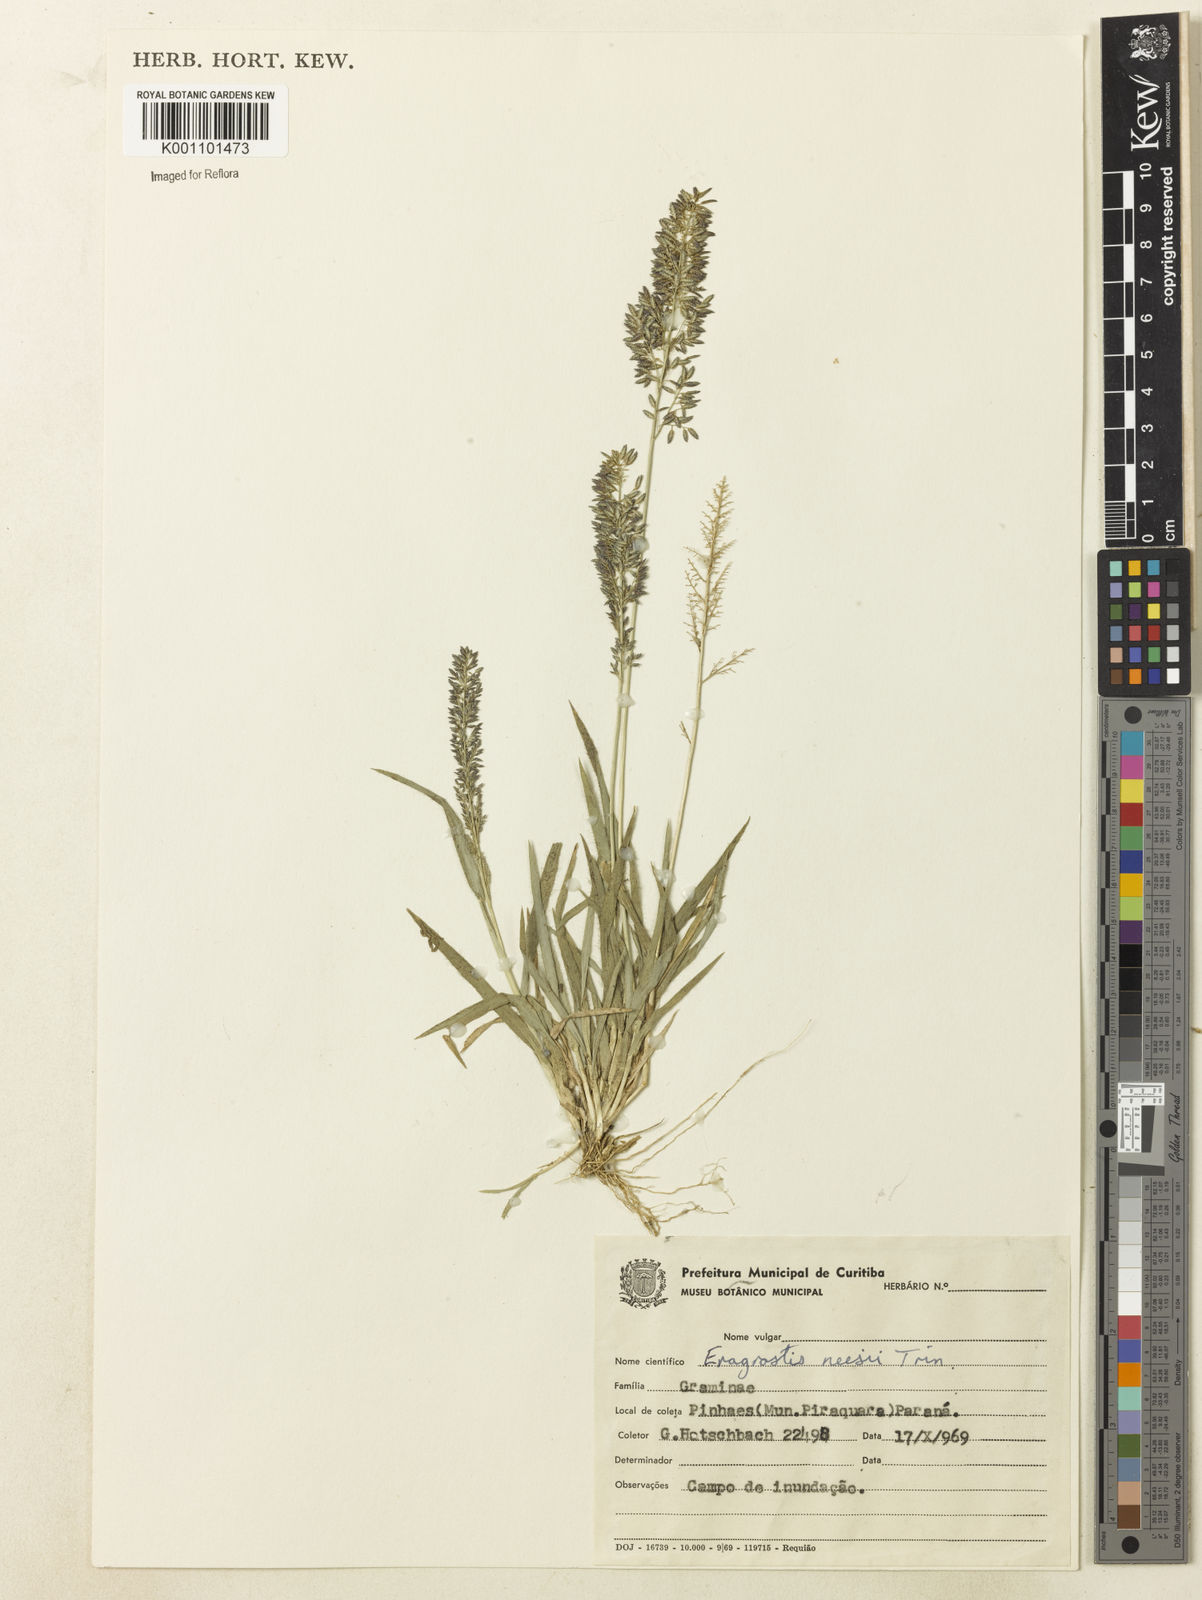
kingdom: Plantae
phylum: Tracheophyta
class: Liliopsida
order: Poales
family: Poaceae
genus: Eragrostis
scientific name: Eragrostis neesii
